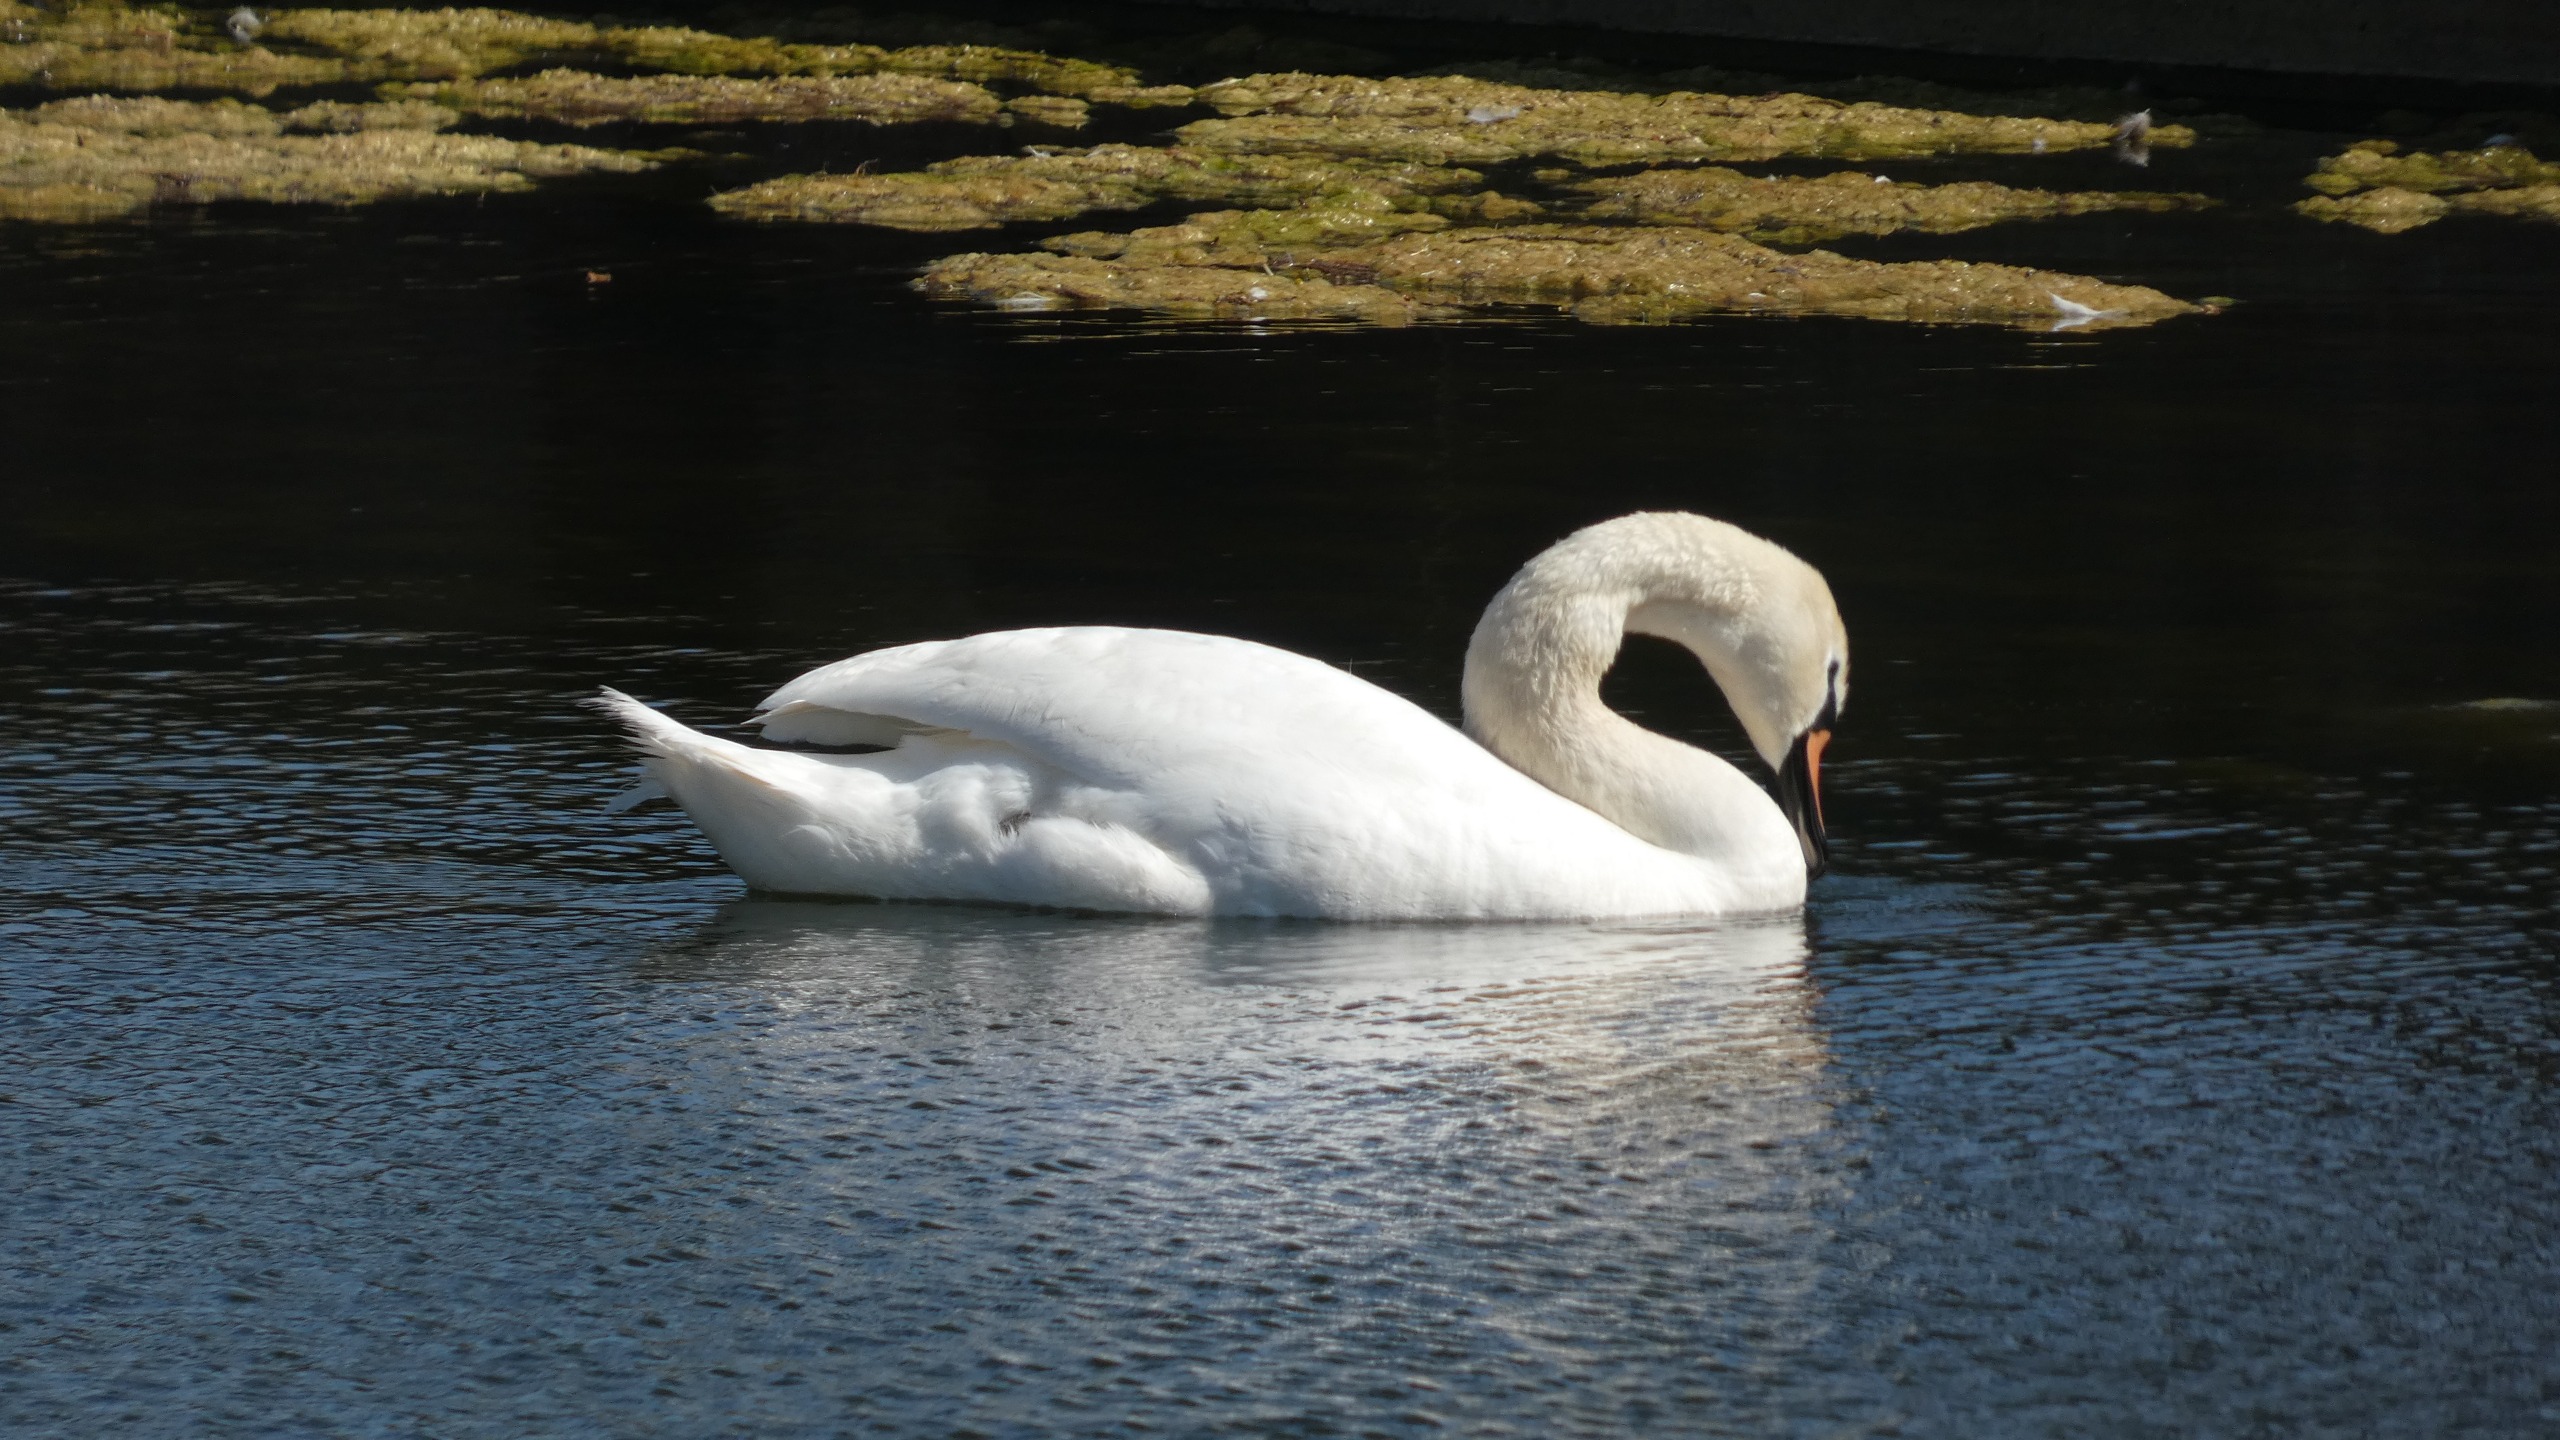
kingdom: Animalia
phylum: Chordata
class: Aves
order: Anseriformes
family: Anatidae
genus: Cygnus
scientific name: Cygnus olor
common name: Knopsvane
